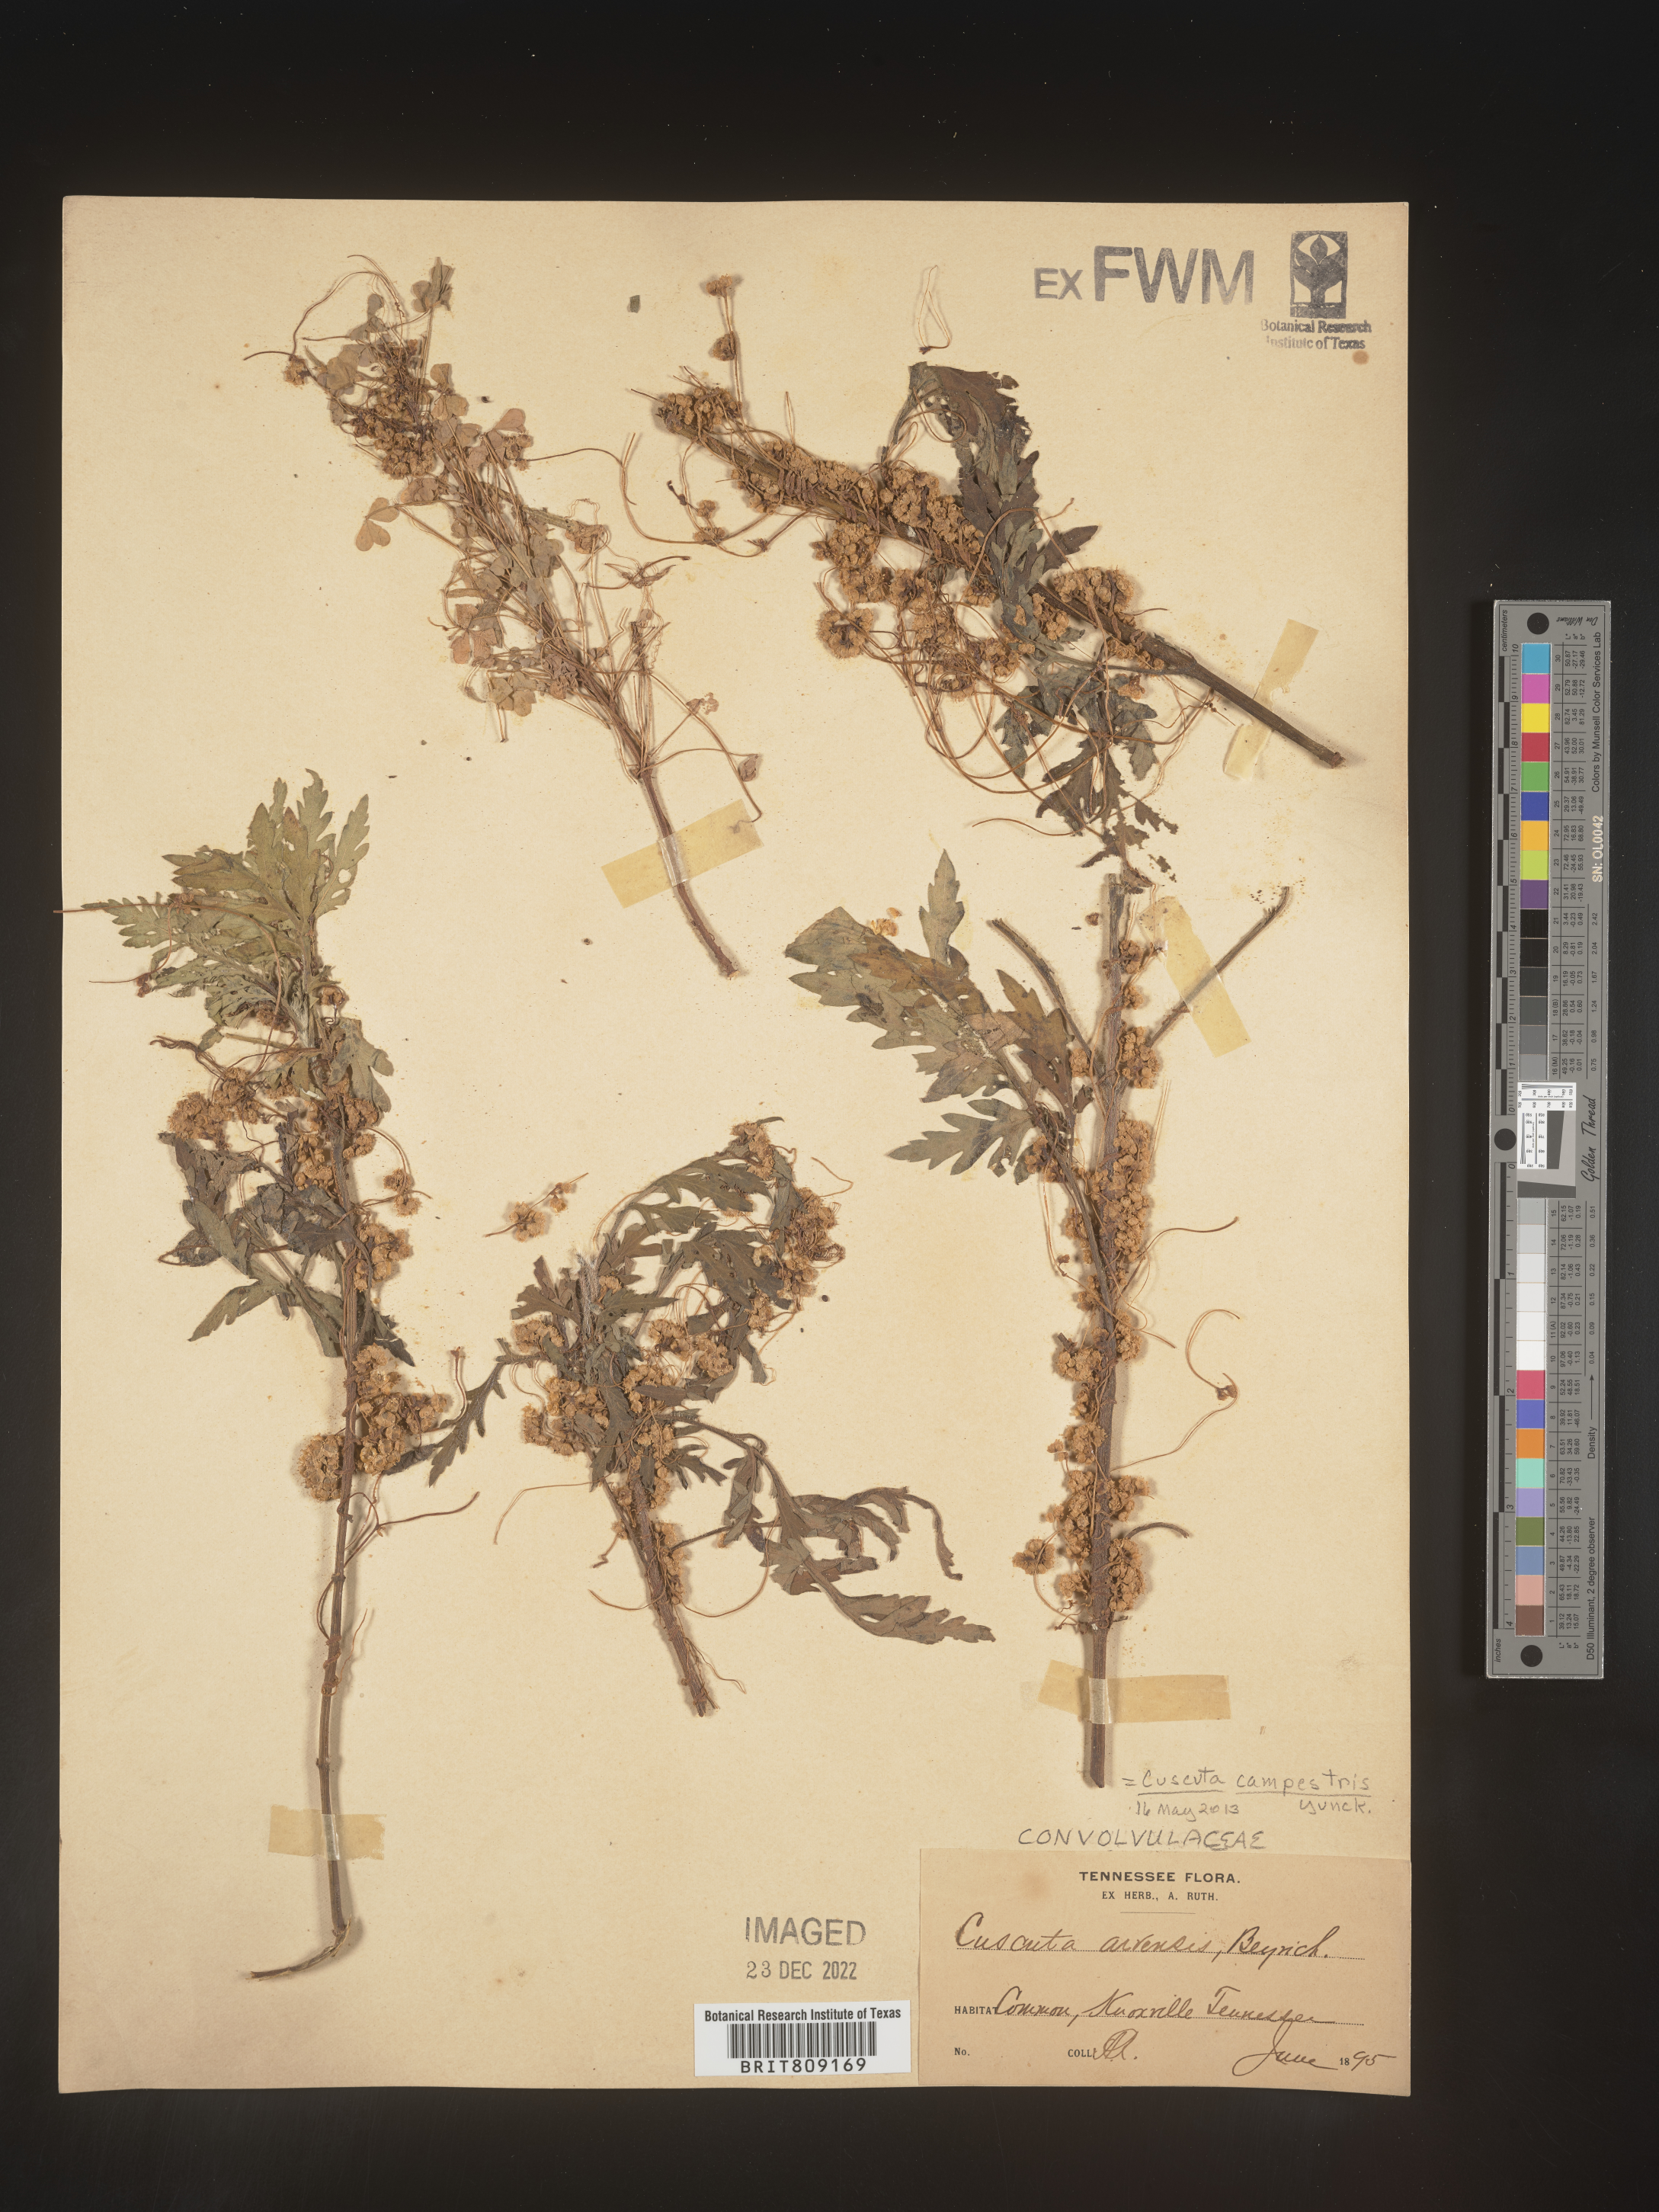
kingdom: Plantae
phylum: Tracheophyta
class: Magnoliopsida
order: Solanales
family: Convolvulaceae
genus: Cuscuta
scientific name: Cuscuta campestris
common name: Yellow dodder
